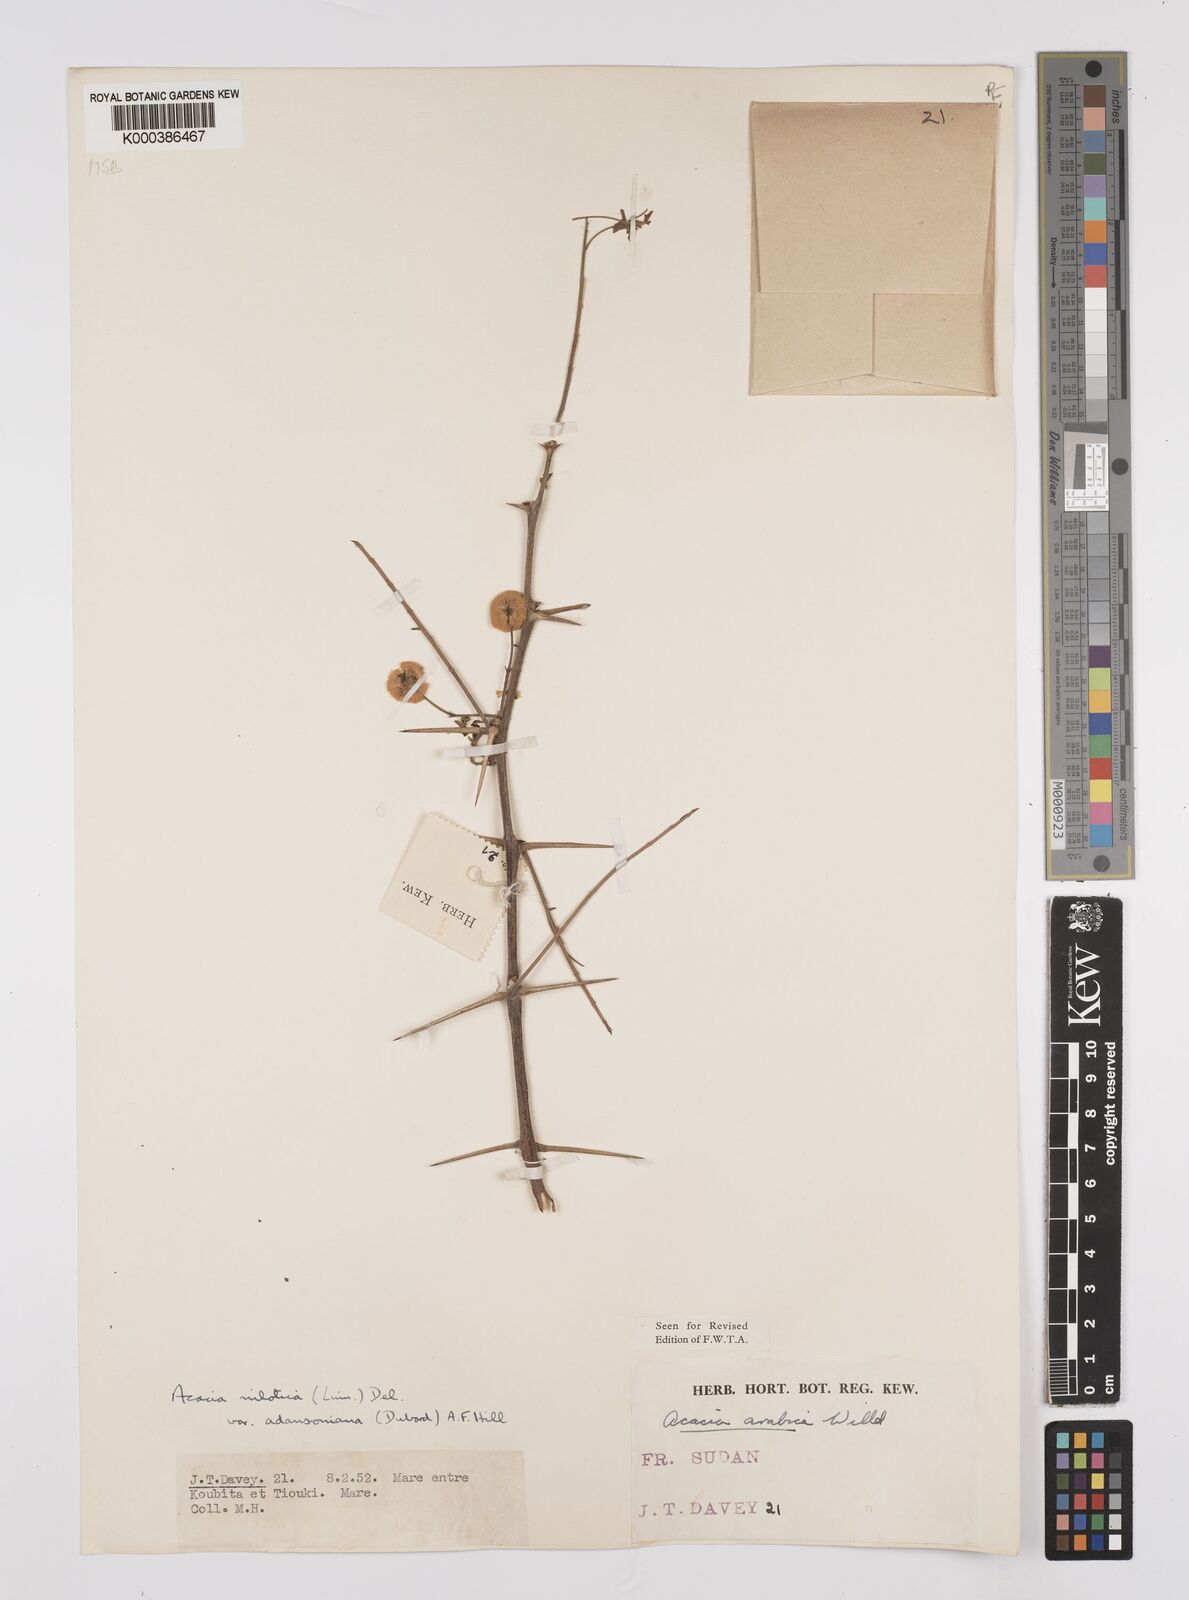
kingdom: Plantae
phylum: Tracheophyta
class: Magnoliopsida
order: Fabales
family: Fabaceae
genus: Vachellia
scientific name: Vachellia nilotica
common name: Arabic gumtree
